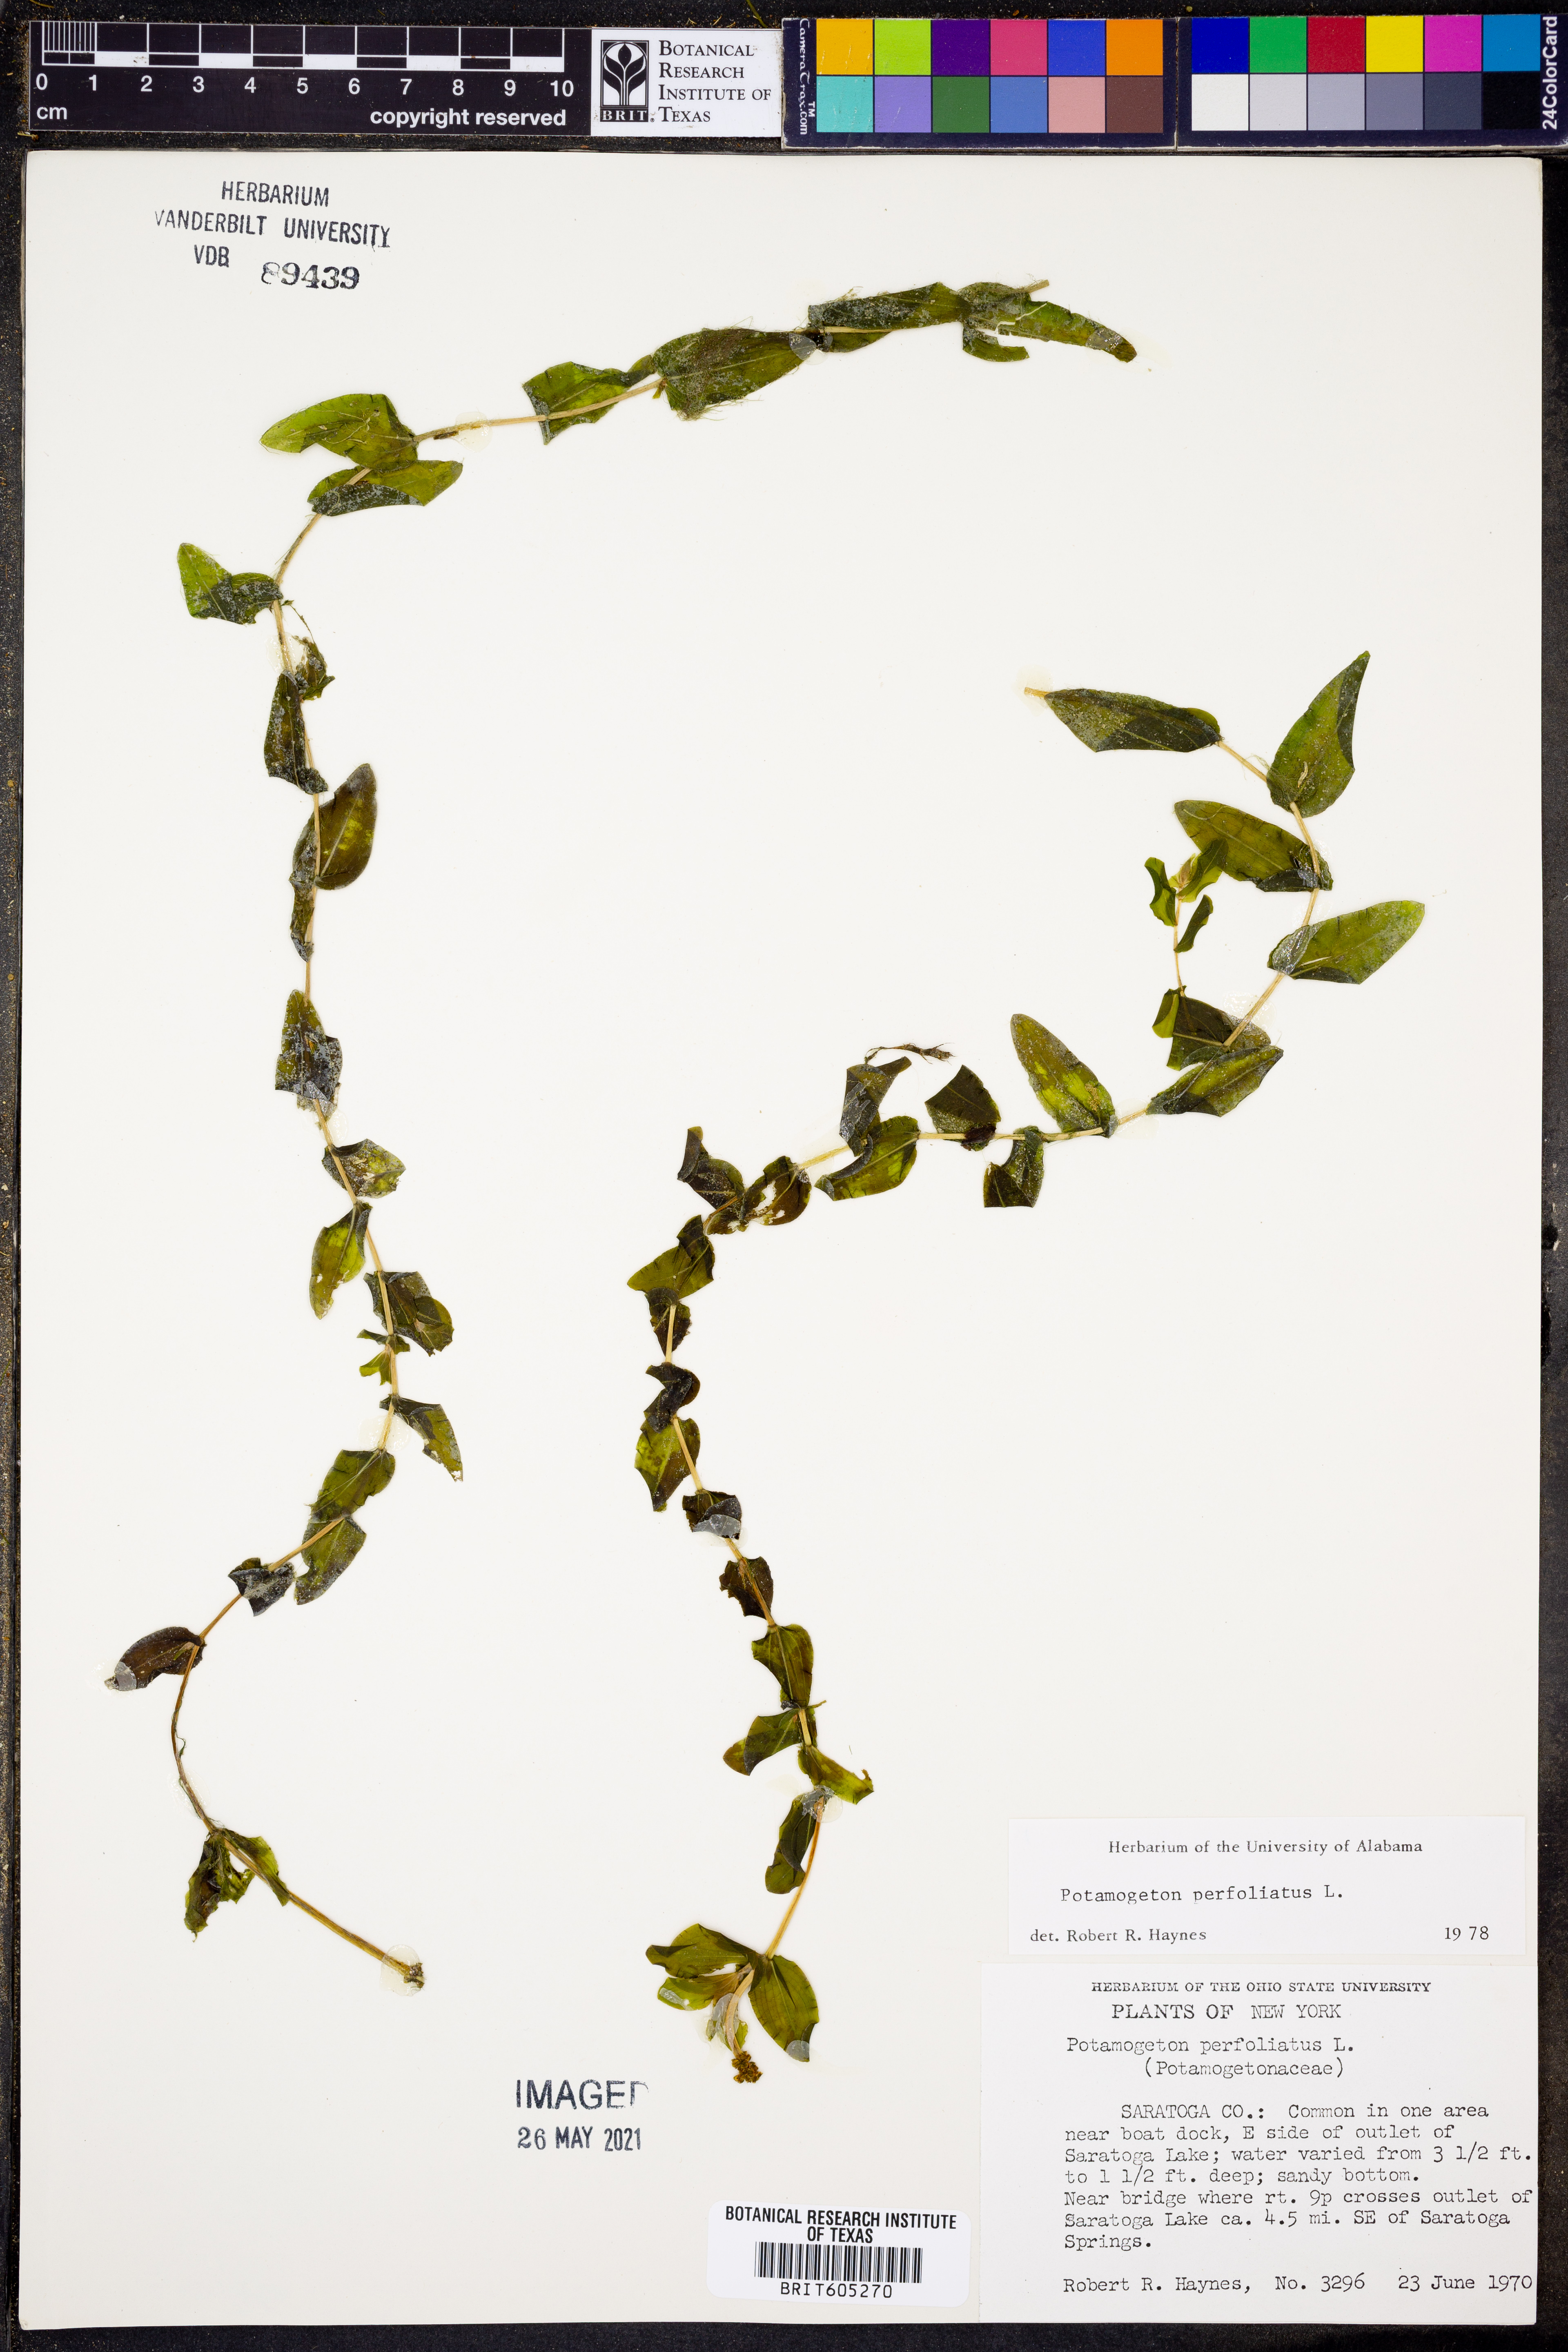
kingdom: Plantae
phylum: Tracheophyta
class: Liliopsida
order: Alismatales
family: Potamogetonaceae
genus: Potamogeton
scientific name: Potamogeton perfoliatus
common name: Perfoliate pondweed
